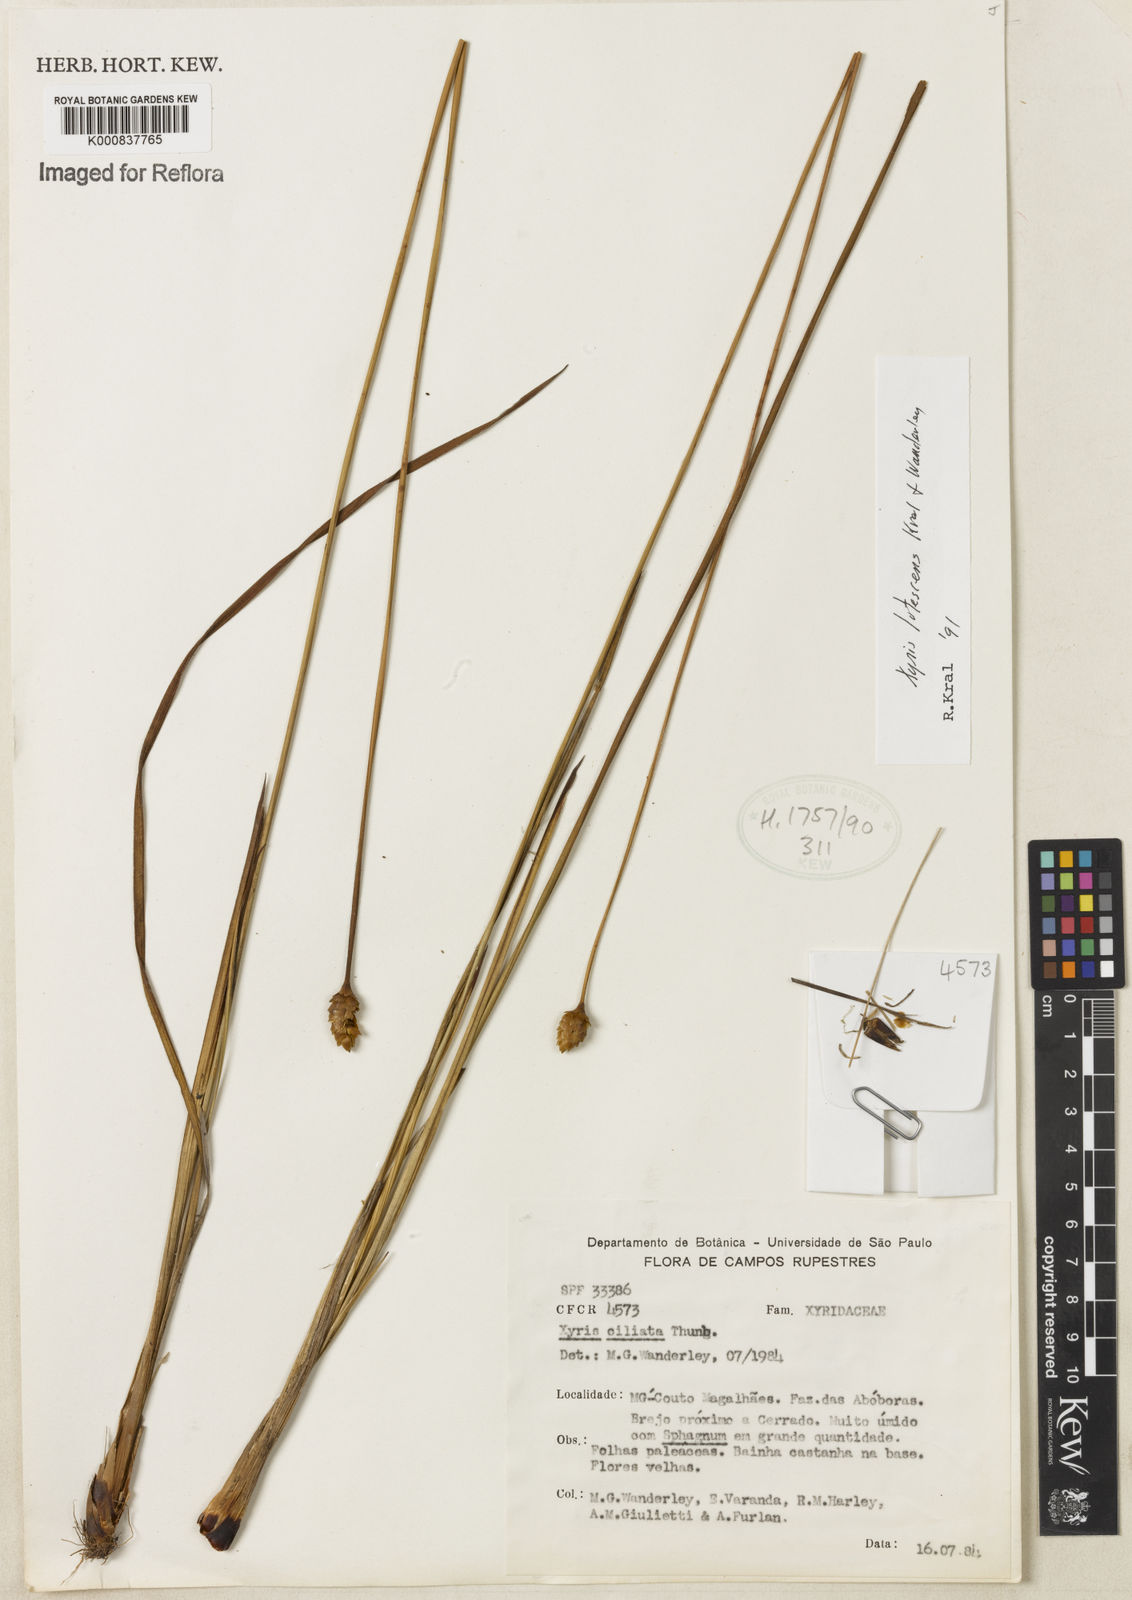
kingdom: Plantae
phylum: Tracheophyta
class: Liliopsida
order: Poales
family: Xyridaceae
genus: Xyris
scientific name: Xyris lutescens
